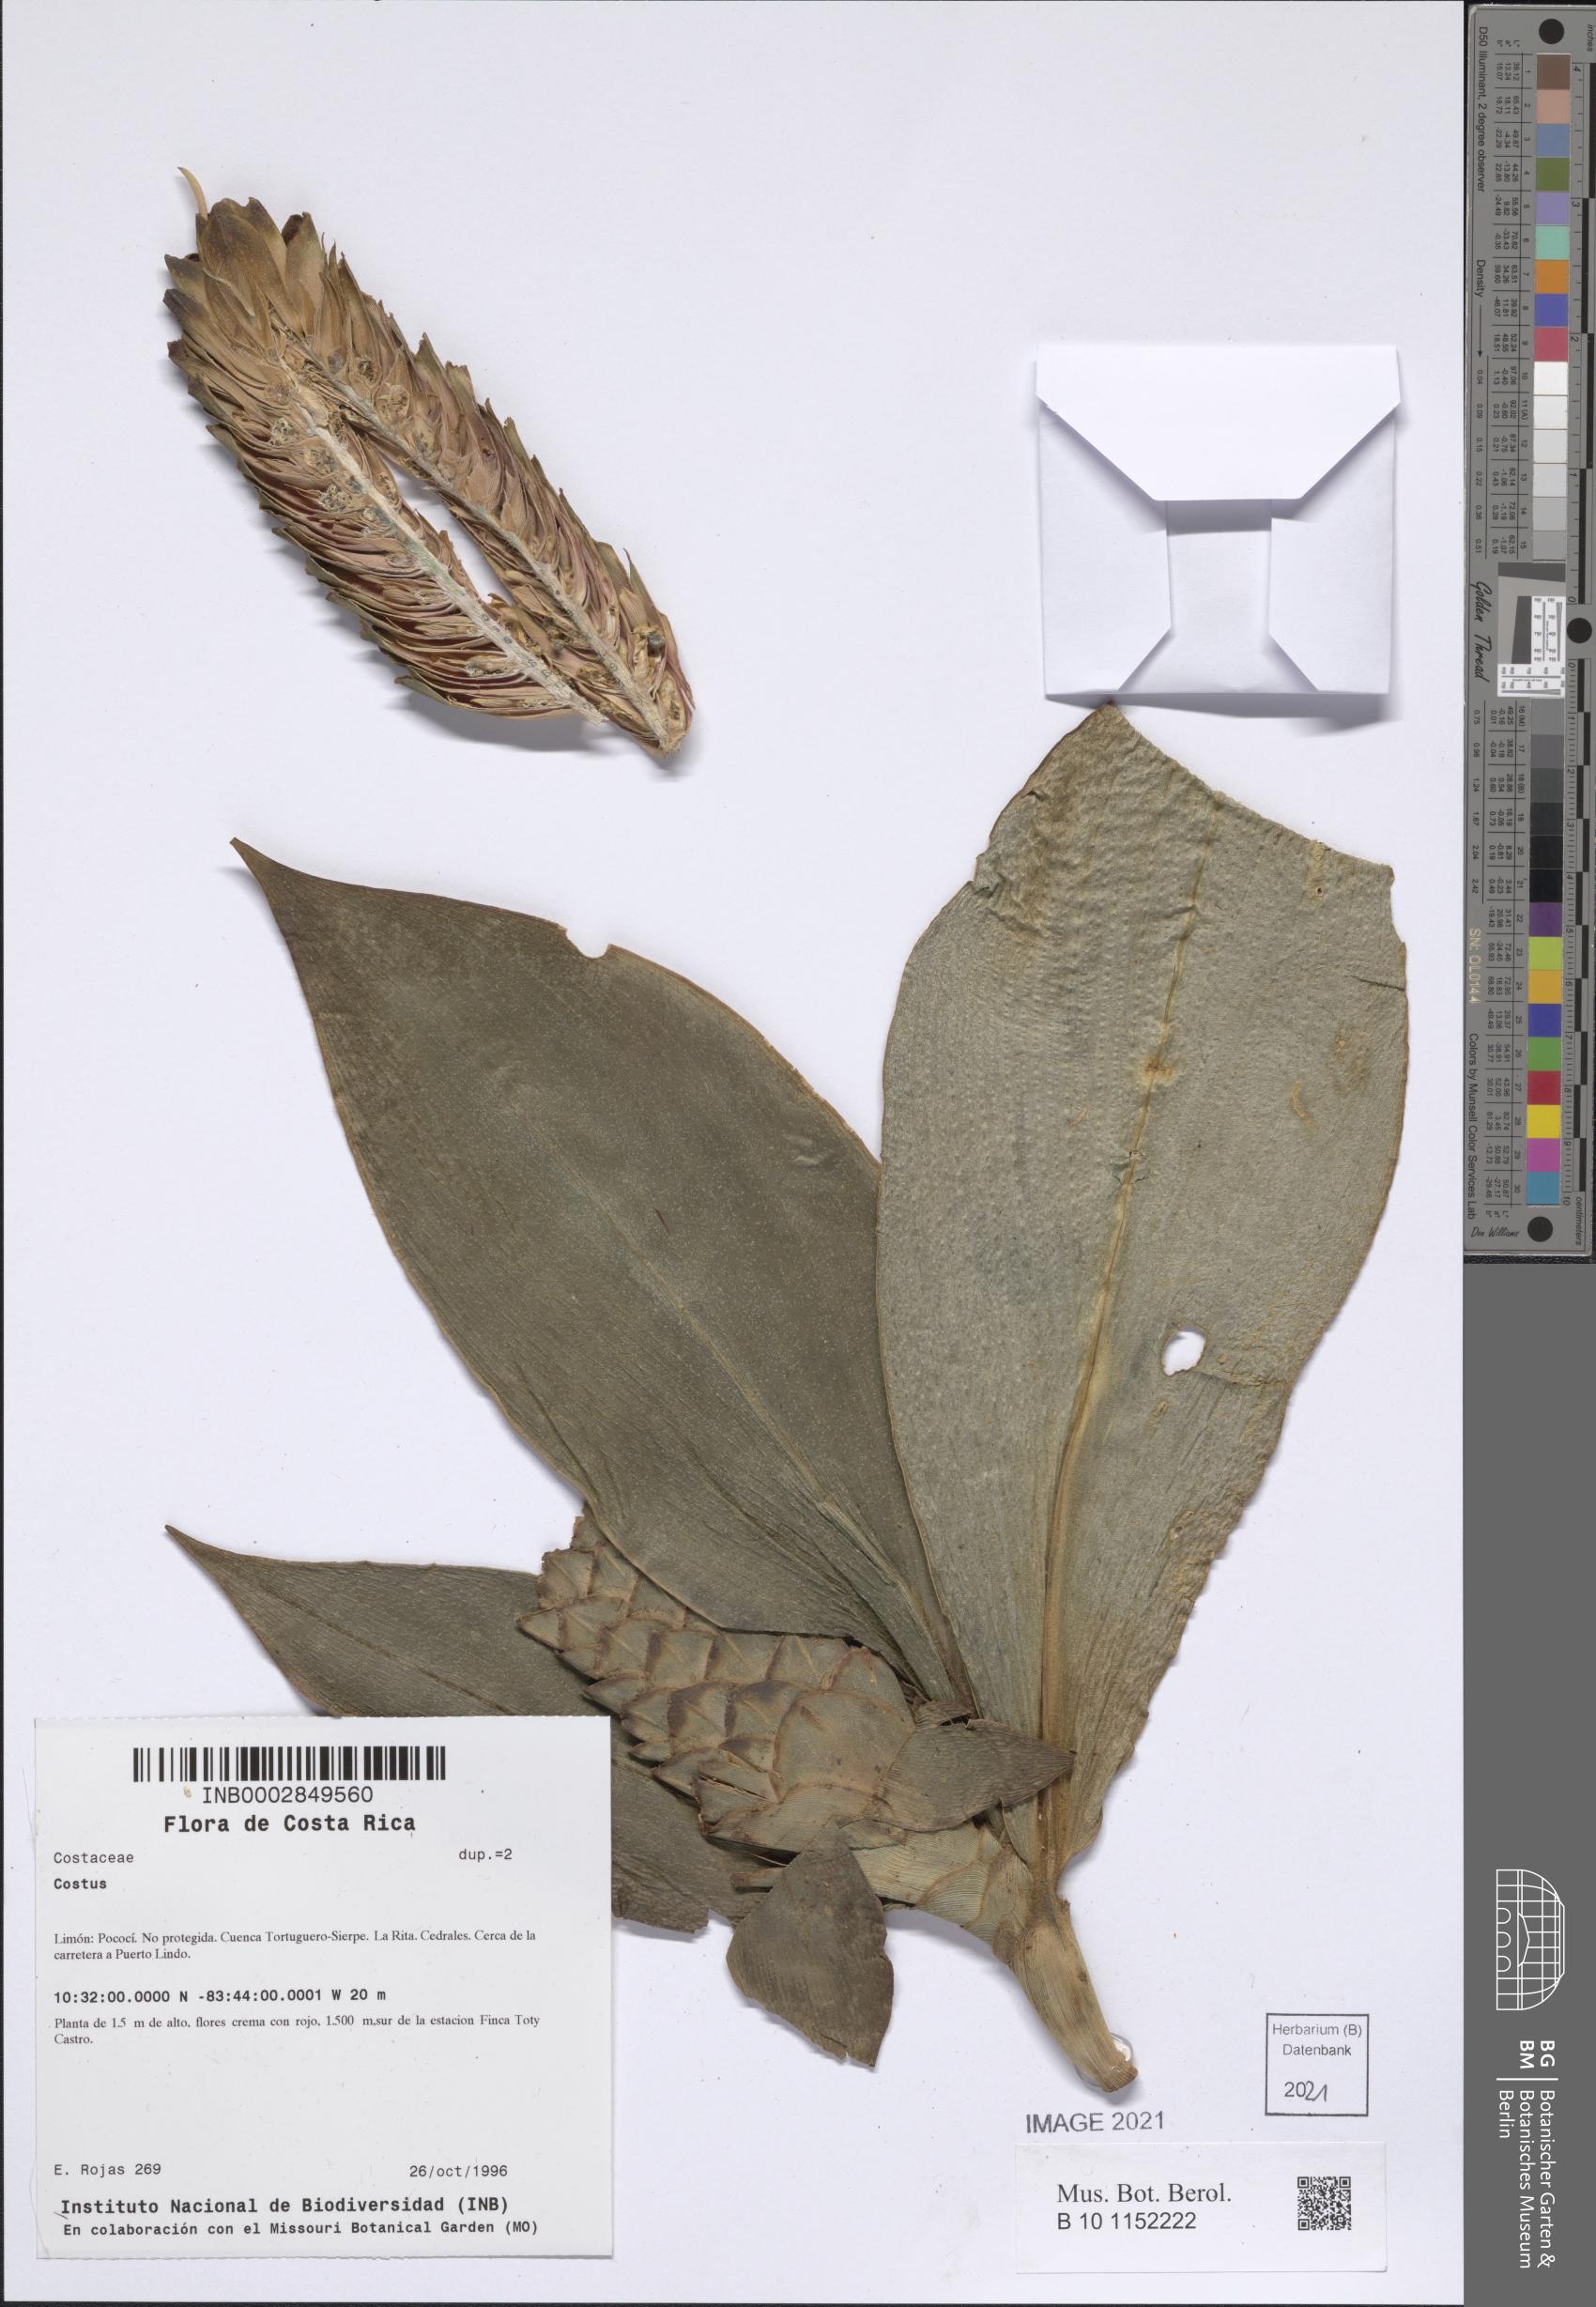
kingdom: Plantae
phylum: Tracheophyta
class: Liliopsida
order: Zingiberales
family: Costaceae
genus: Costus
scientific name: Costus
